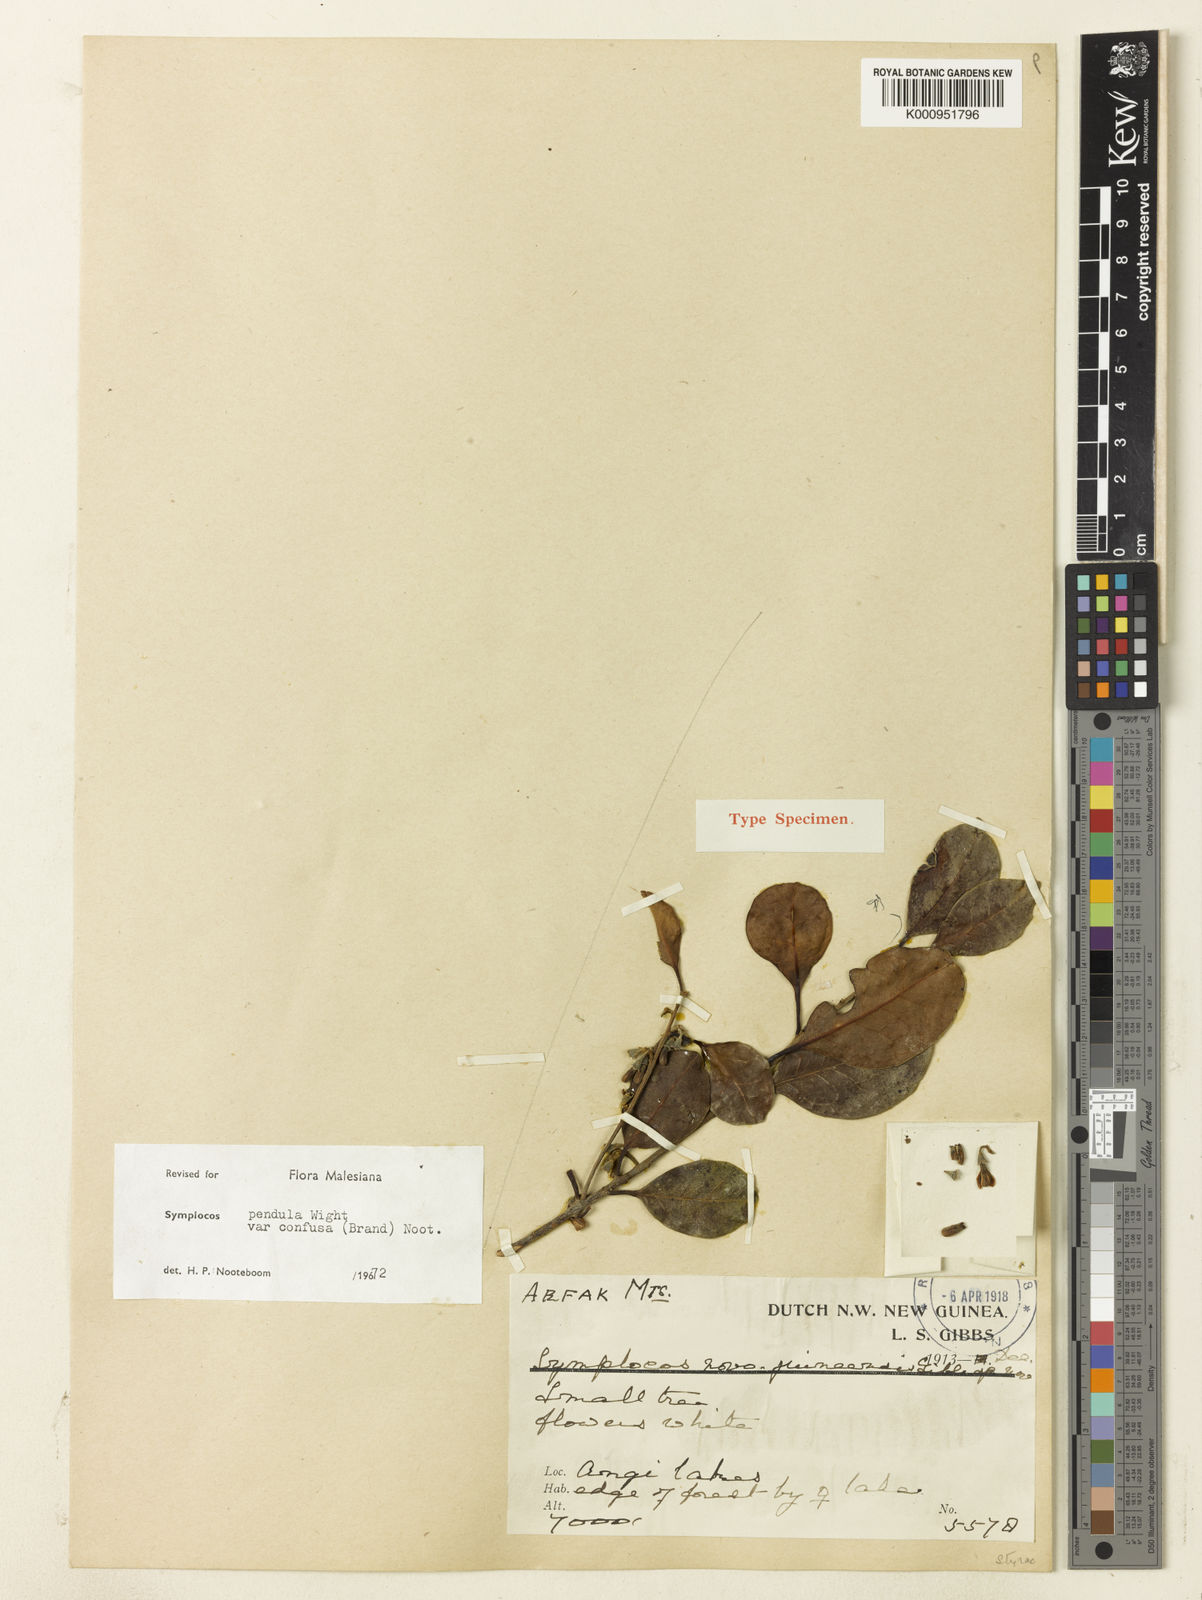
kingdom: Plantae
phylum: Tracheophyta
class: Magnoliopsida
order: Ericales
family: Symplocaceae
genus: Symplocos
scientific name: Symplocos pendula
